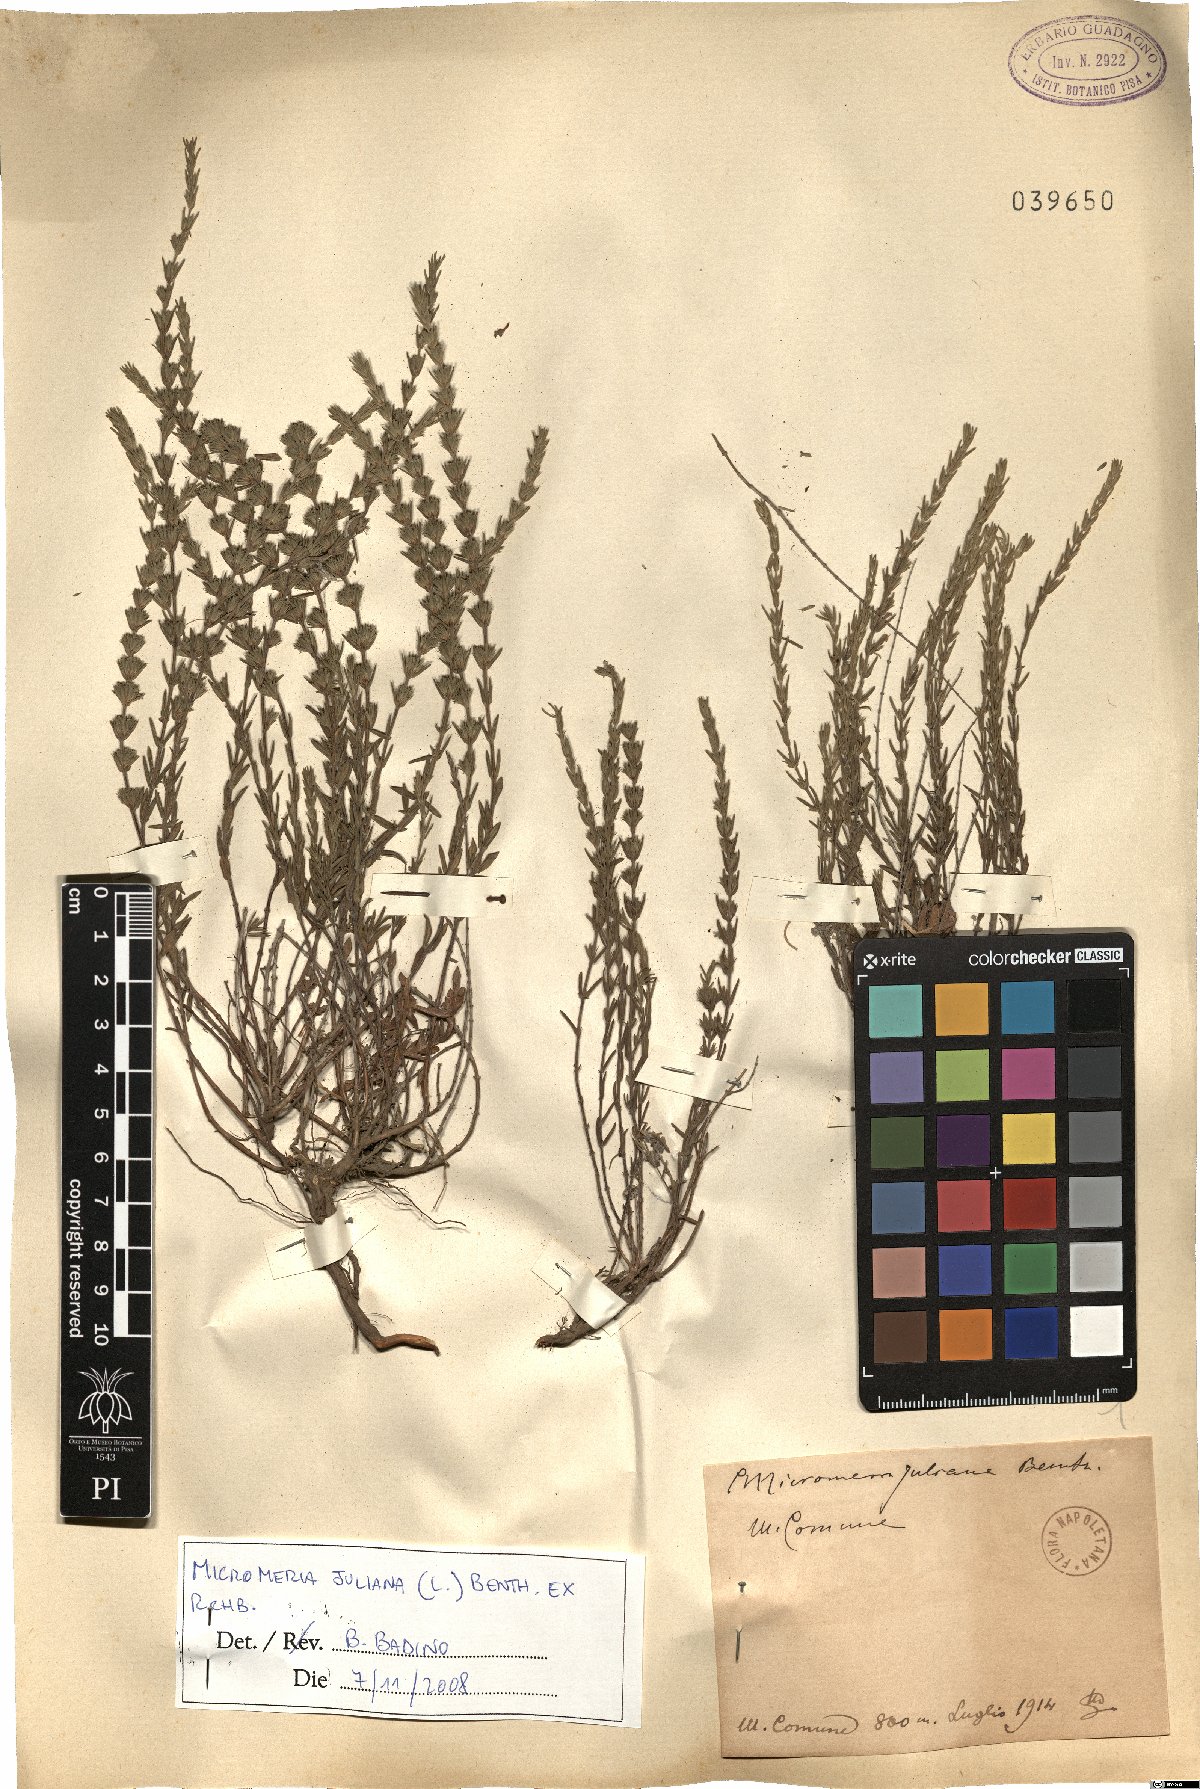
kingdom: Plantae
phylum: Tracheophyta
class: Magnoliopsida
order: Lamiales
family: Lamiaceae
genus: Micromeria
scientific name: Micromeria juliana
